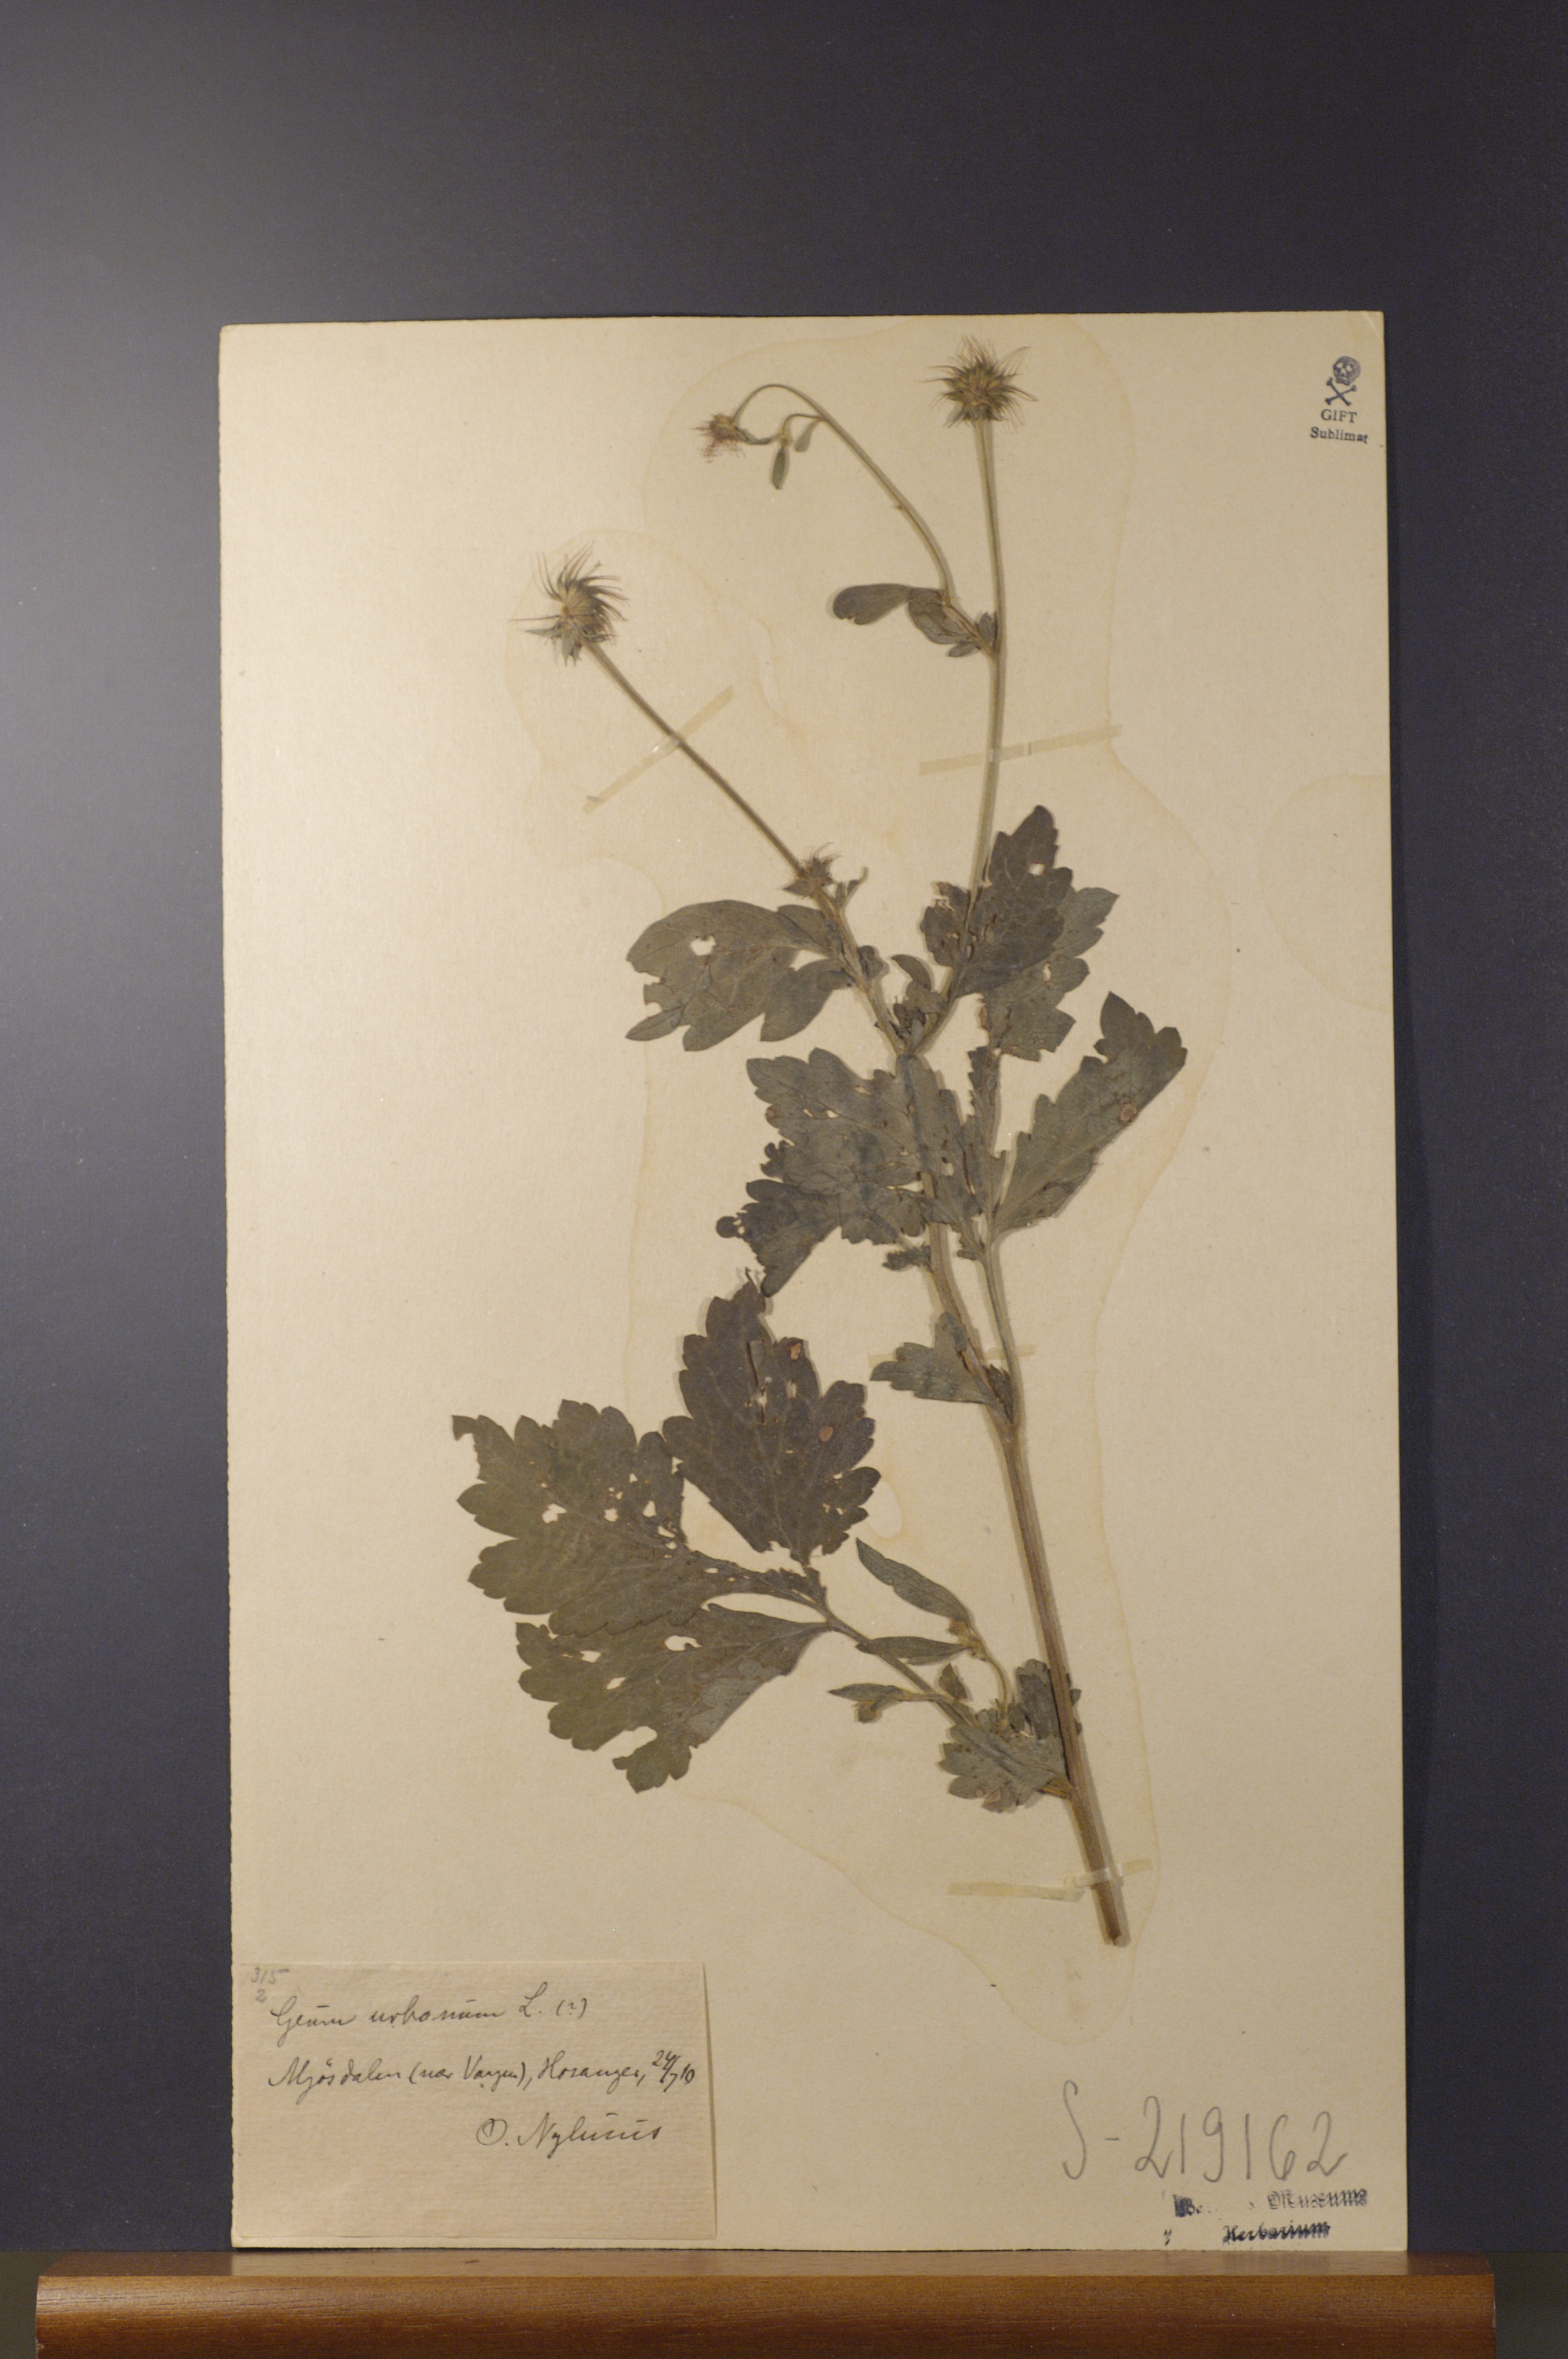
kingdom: Plantae
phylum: Tracheophyta
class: Magnoliopsida
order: Rosales
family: Rosaceae
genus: Geum
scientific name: Geum urbanum
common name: Wood avens
